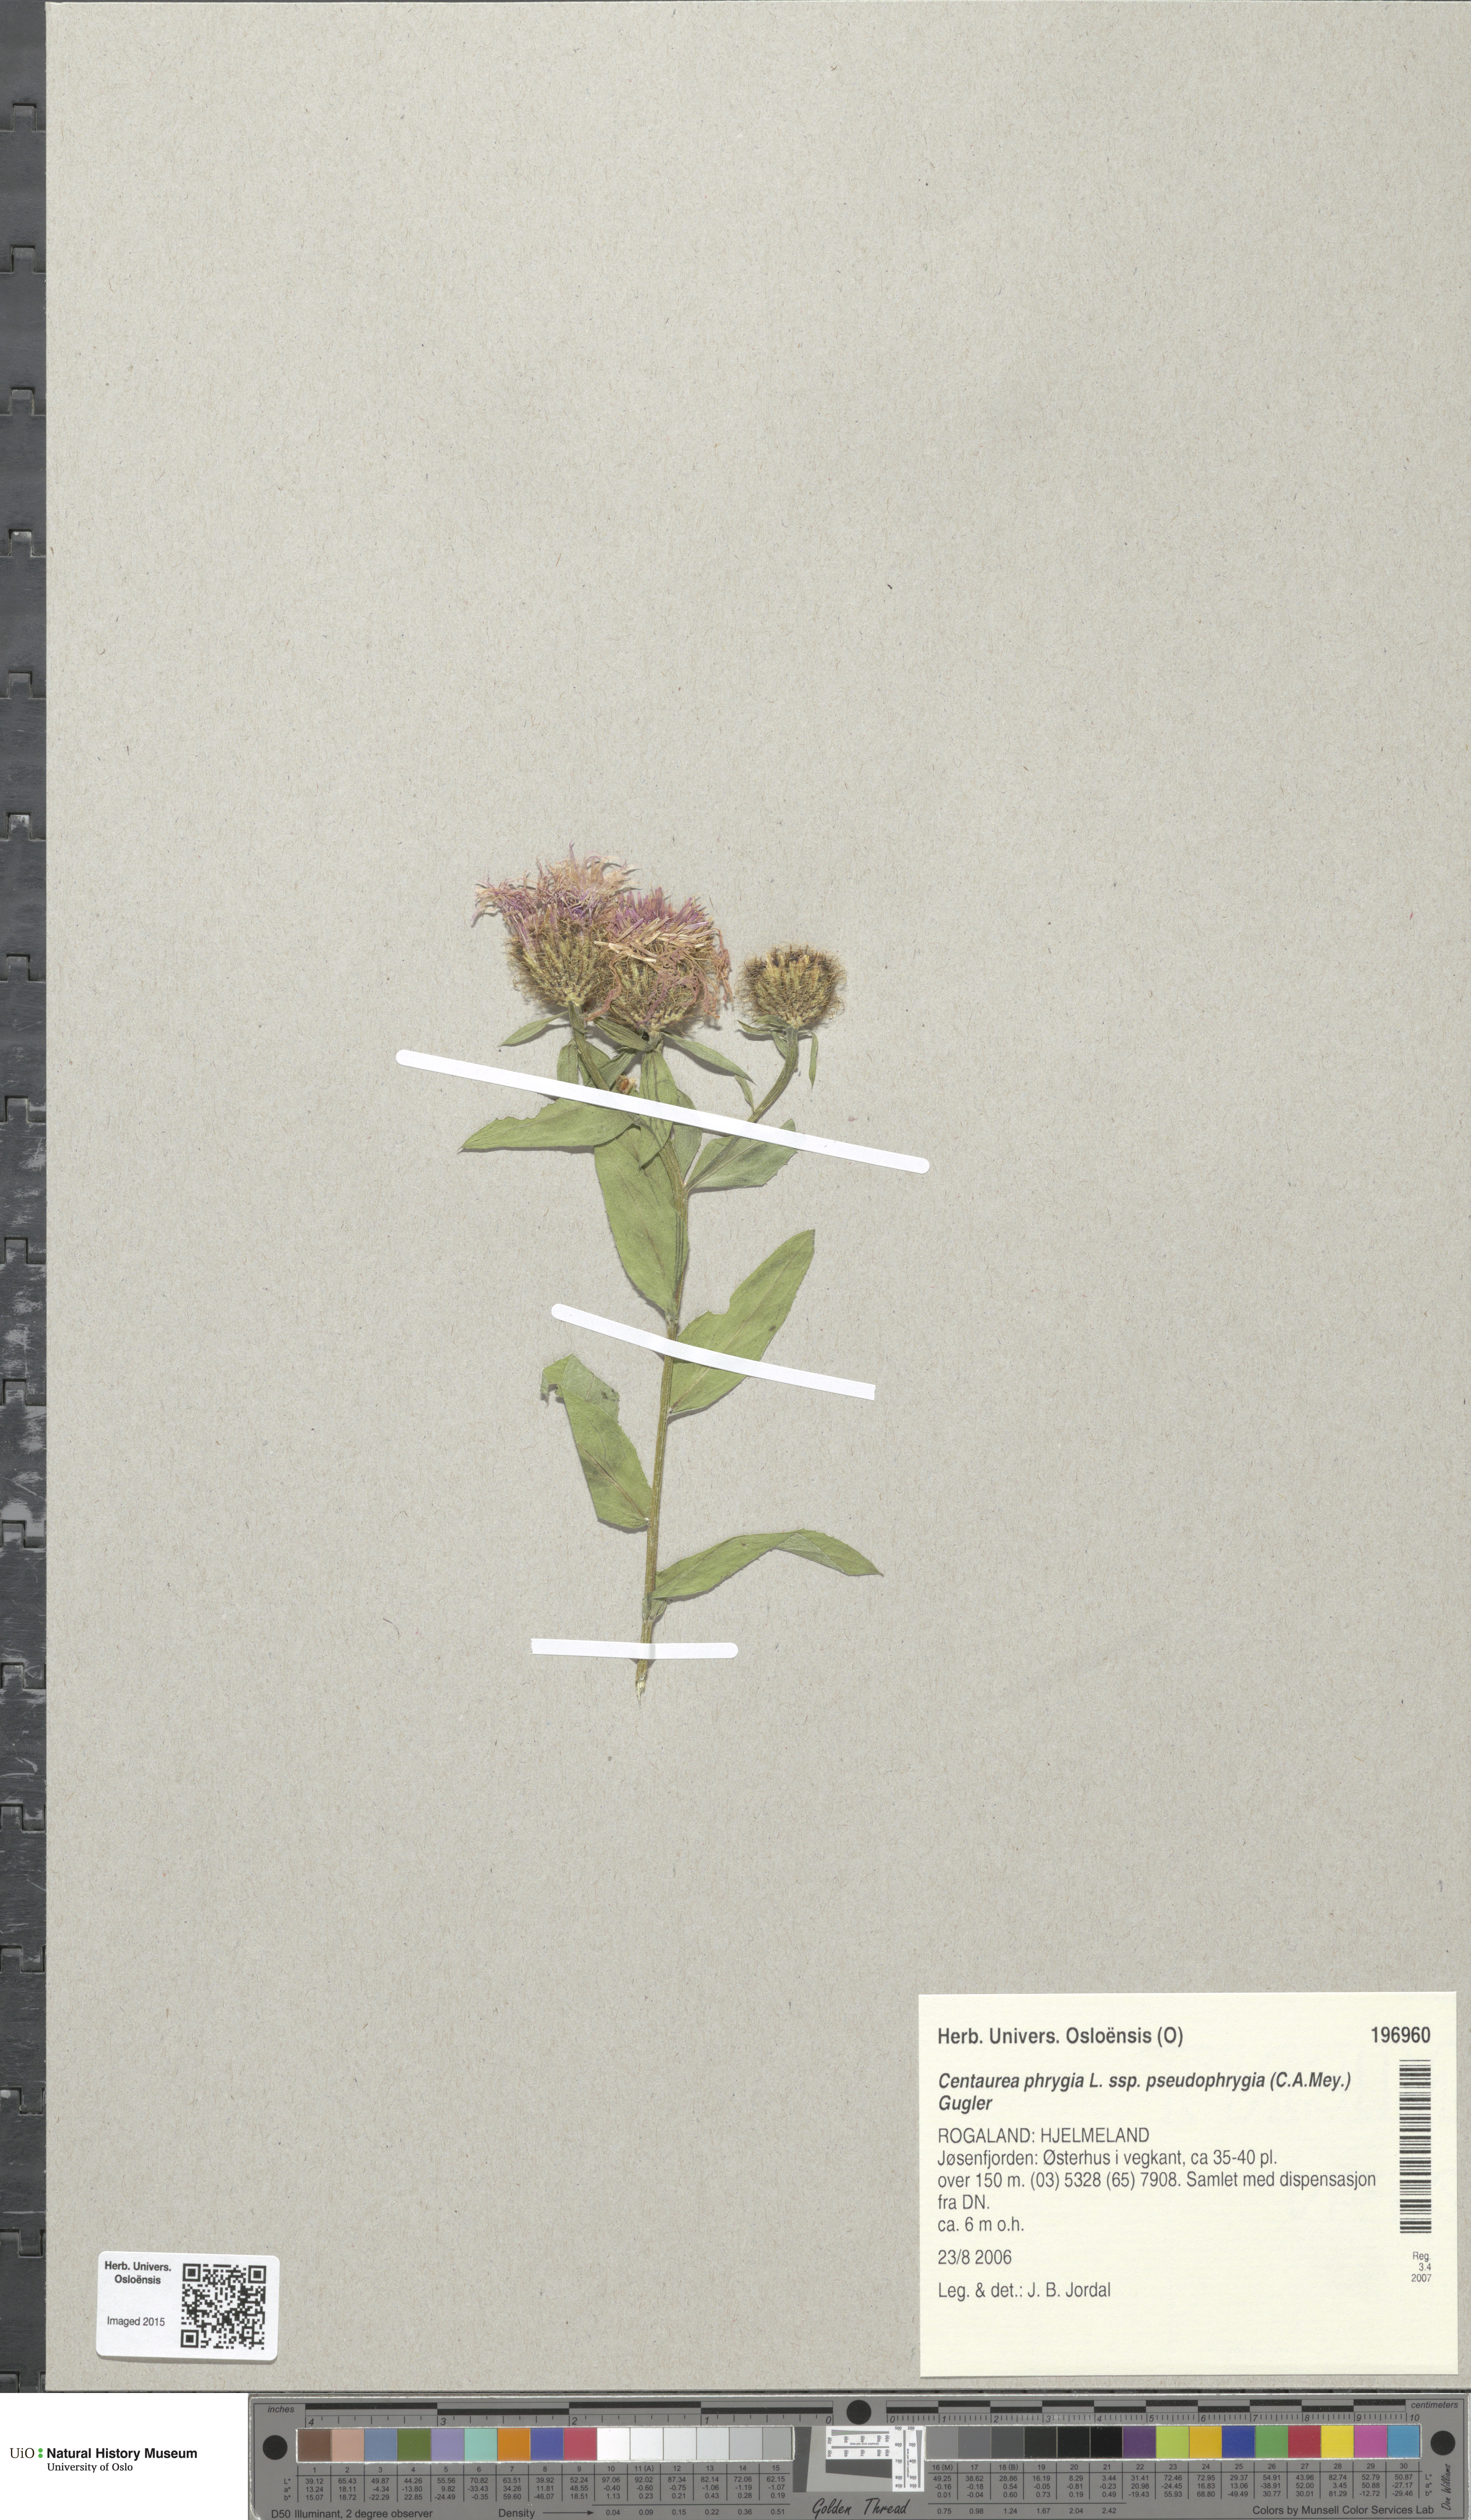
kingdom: Plantae
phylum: Tracheophyta
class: Magnoliopsida
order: Asterales
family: Asteraceae
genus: Centaurea
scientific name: Centaurea pseudophrygia
